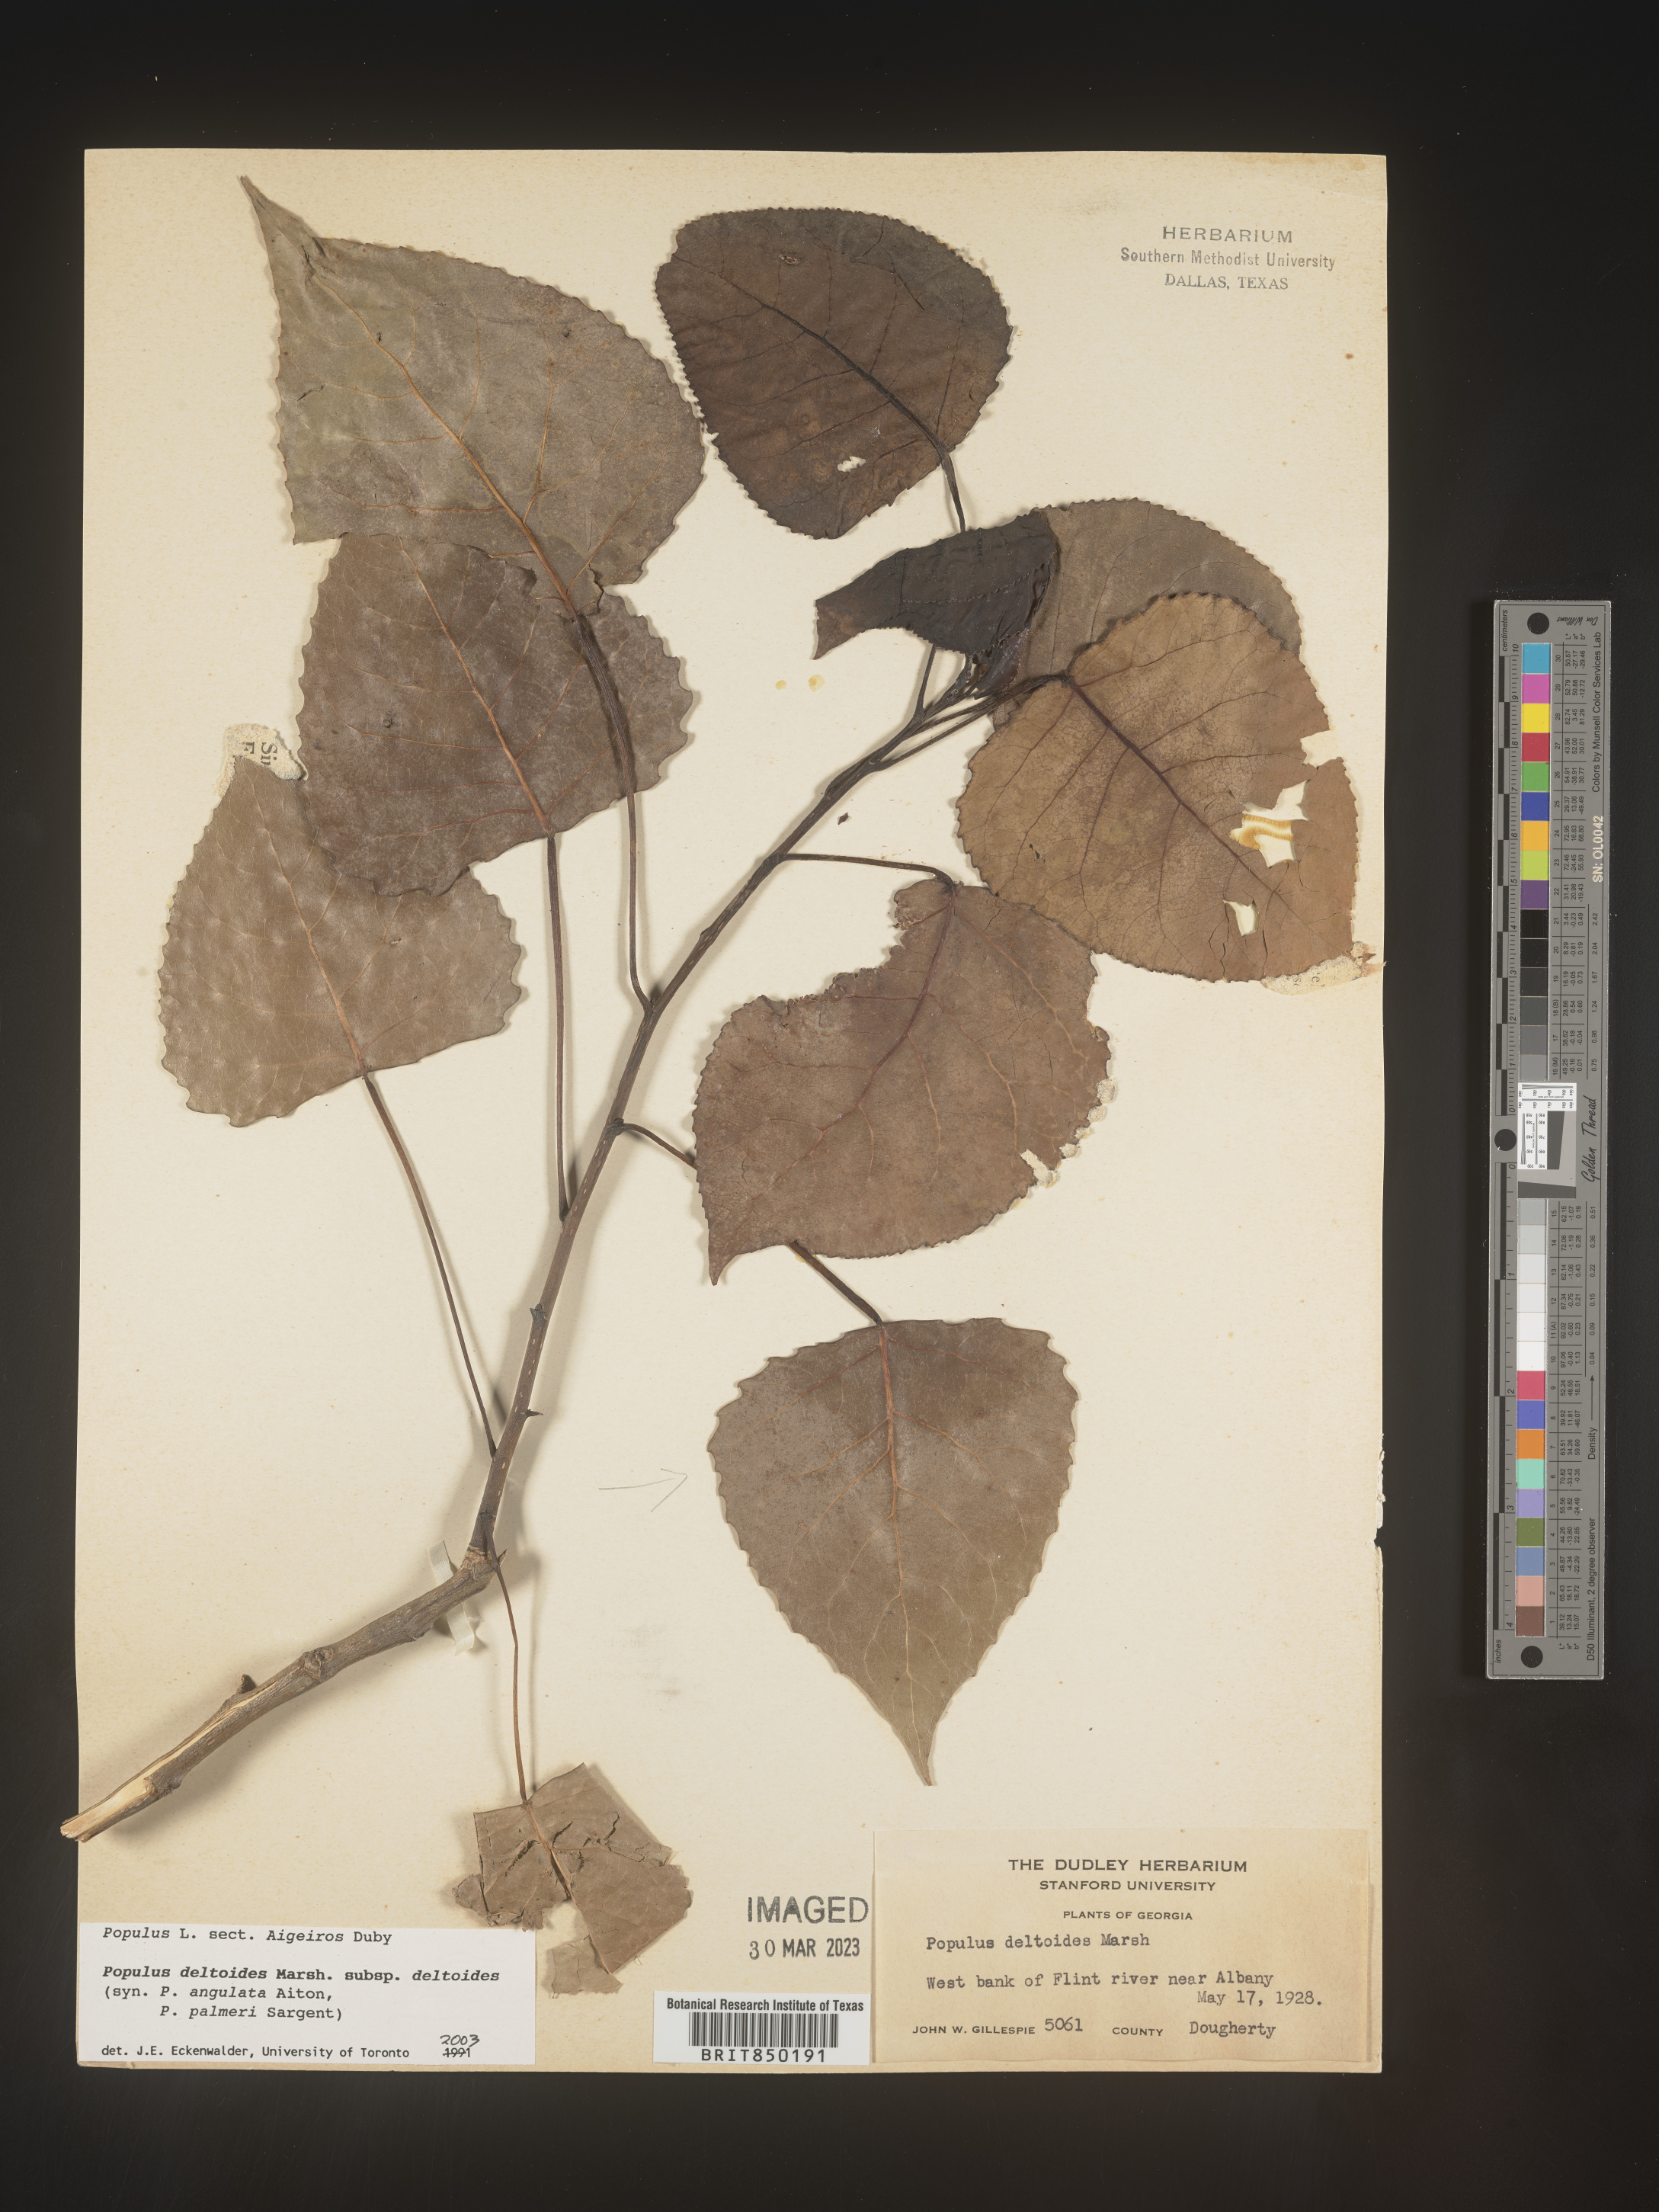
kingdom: Plantae
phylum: Tracheophyta
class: Magnoliopsida
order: Malpighiales
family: Salicaceae
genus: Populus
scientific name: Populus deltoides
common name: Eastern cottonwood
